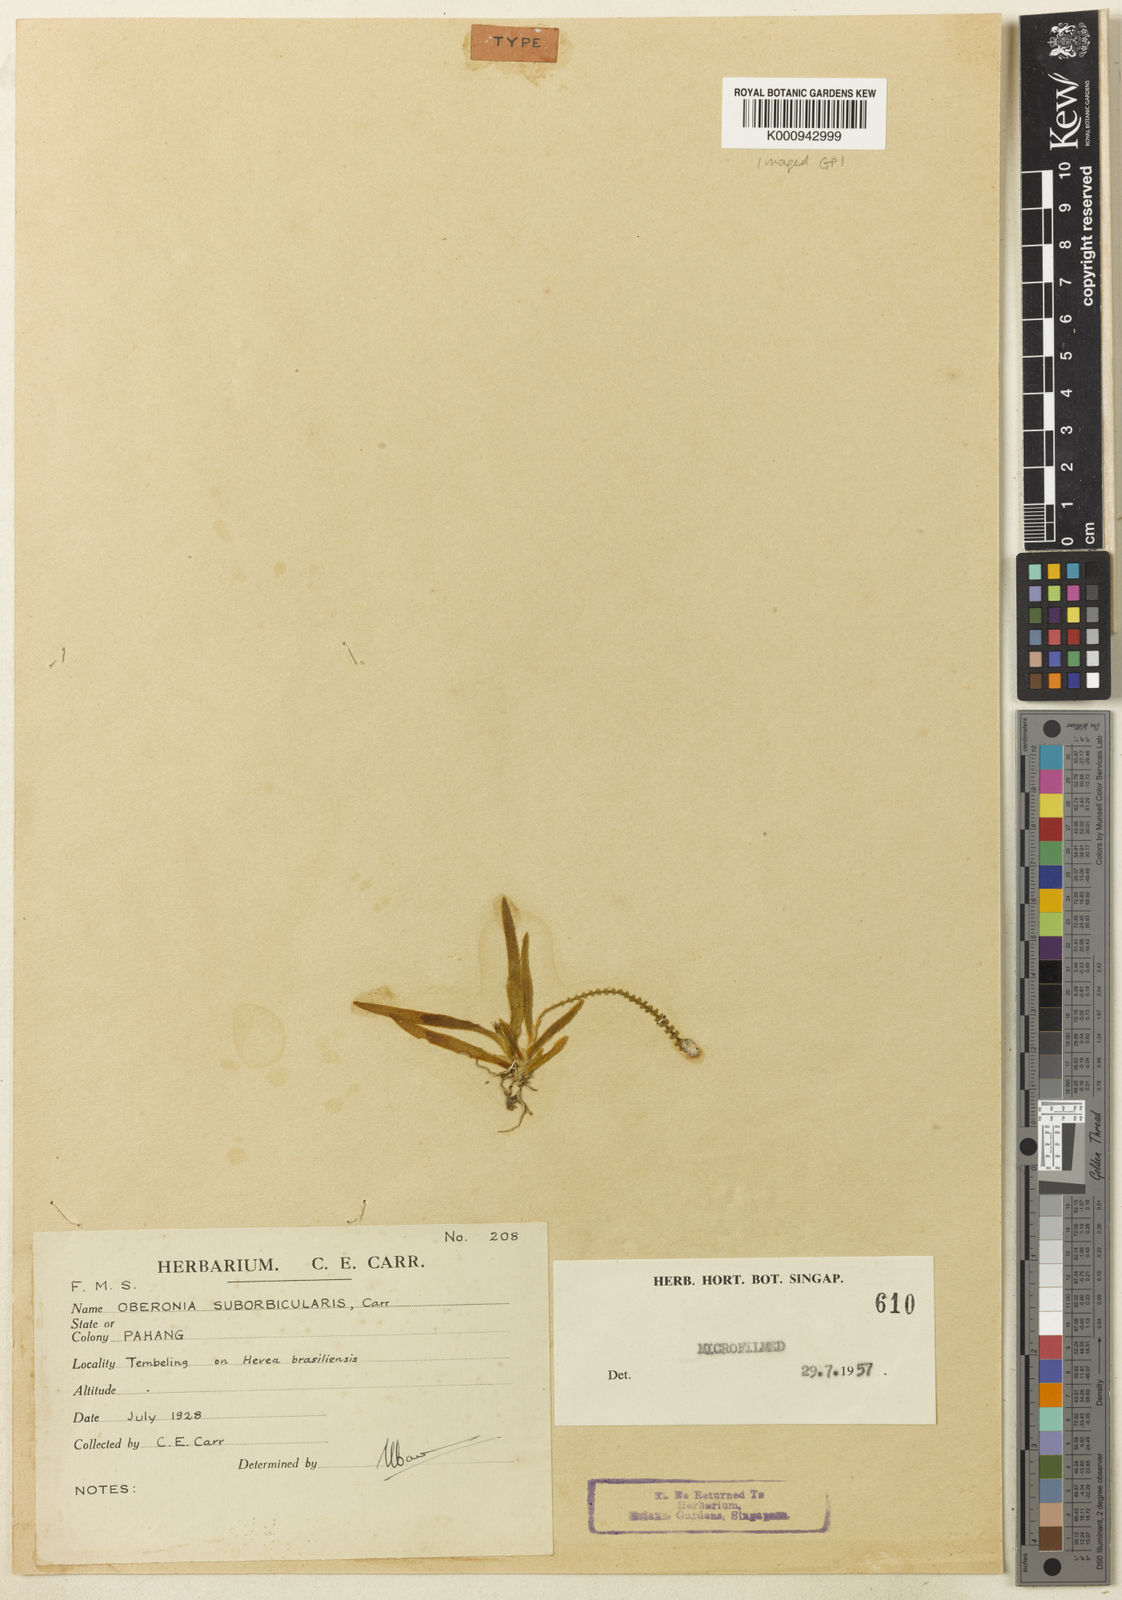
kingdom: Plantae
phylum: Tracheophyta
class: Liliopsida
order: Asparagales
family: Orchidaceae
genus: Oberonia
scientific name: Oberonia suborbicularis
